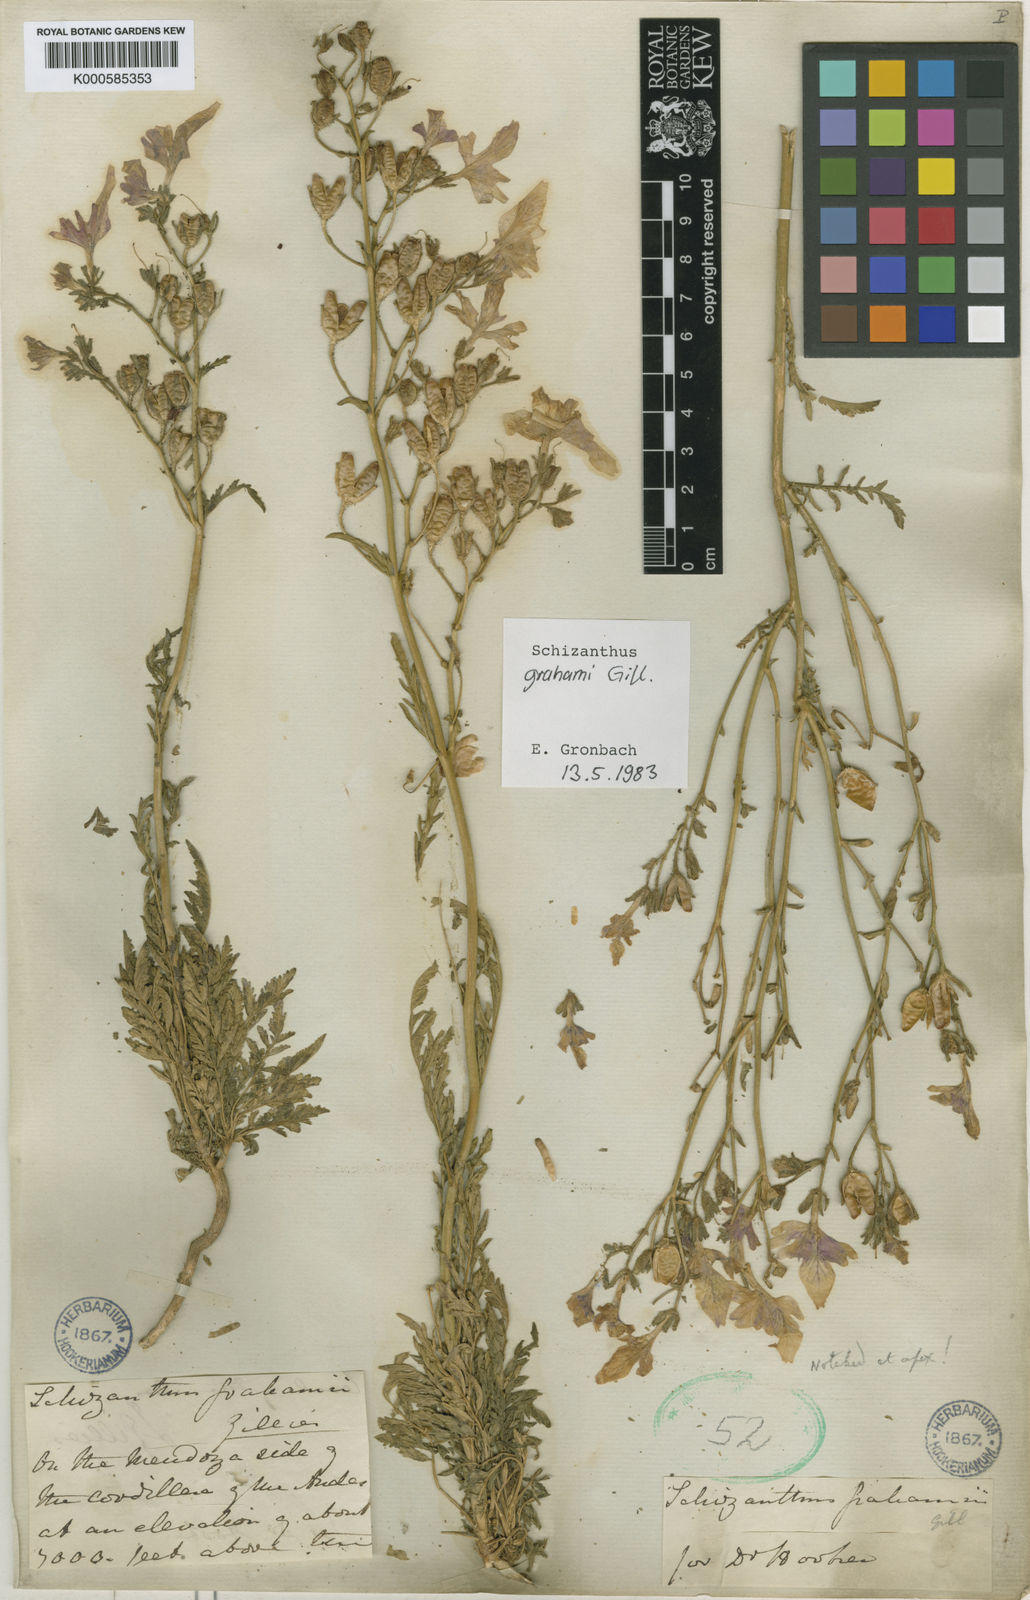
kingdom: Plantae
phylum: Tracheophyta
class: Magnoliopsida
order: Solanales
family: Solanaceae
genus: Schizanthus
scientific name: Schizanthus grahamii
